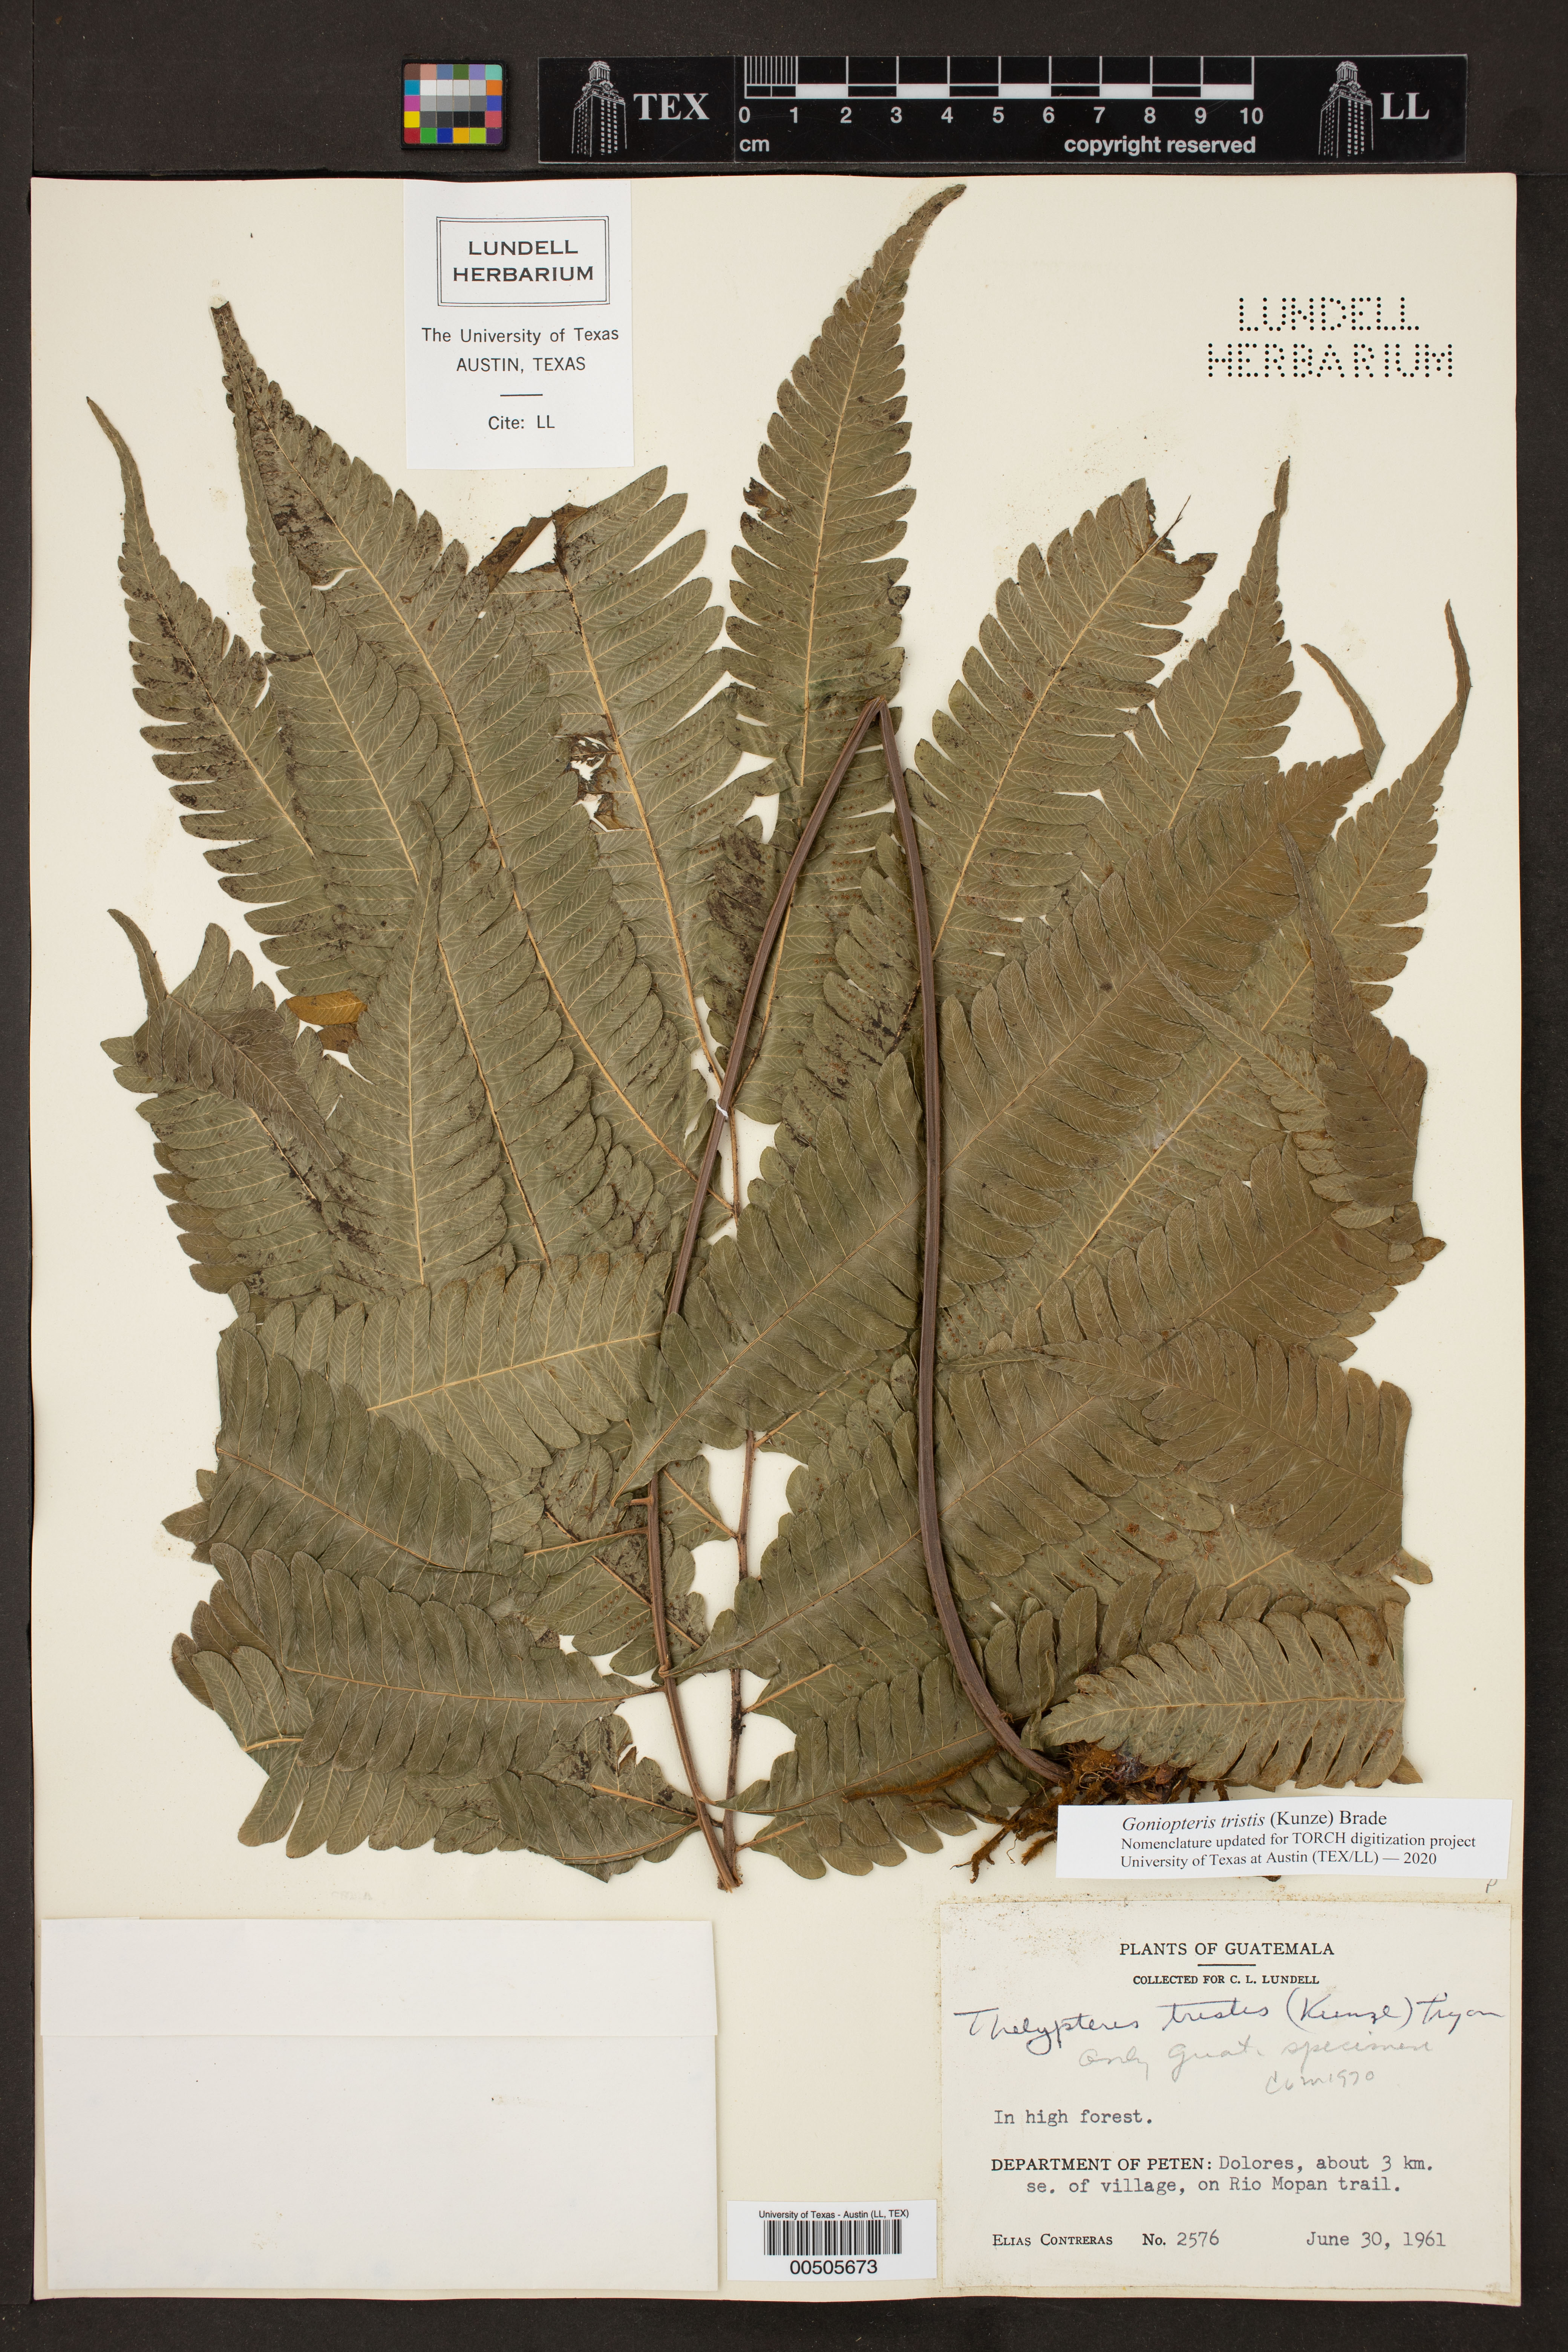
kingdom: Plantae
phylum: Tracheophyta
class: Polypodiopsida
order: Polypodiales
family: Thelypteridaceae
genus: Goniopteris
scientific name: Goniopteris tristis
